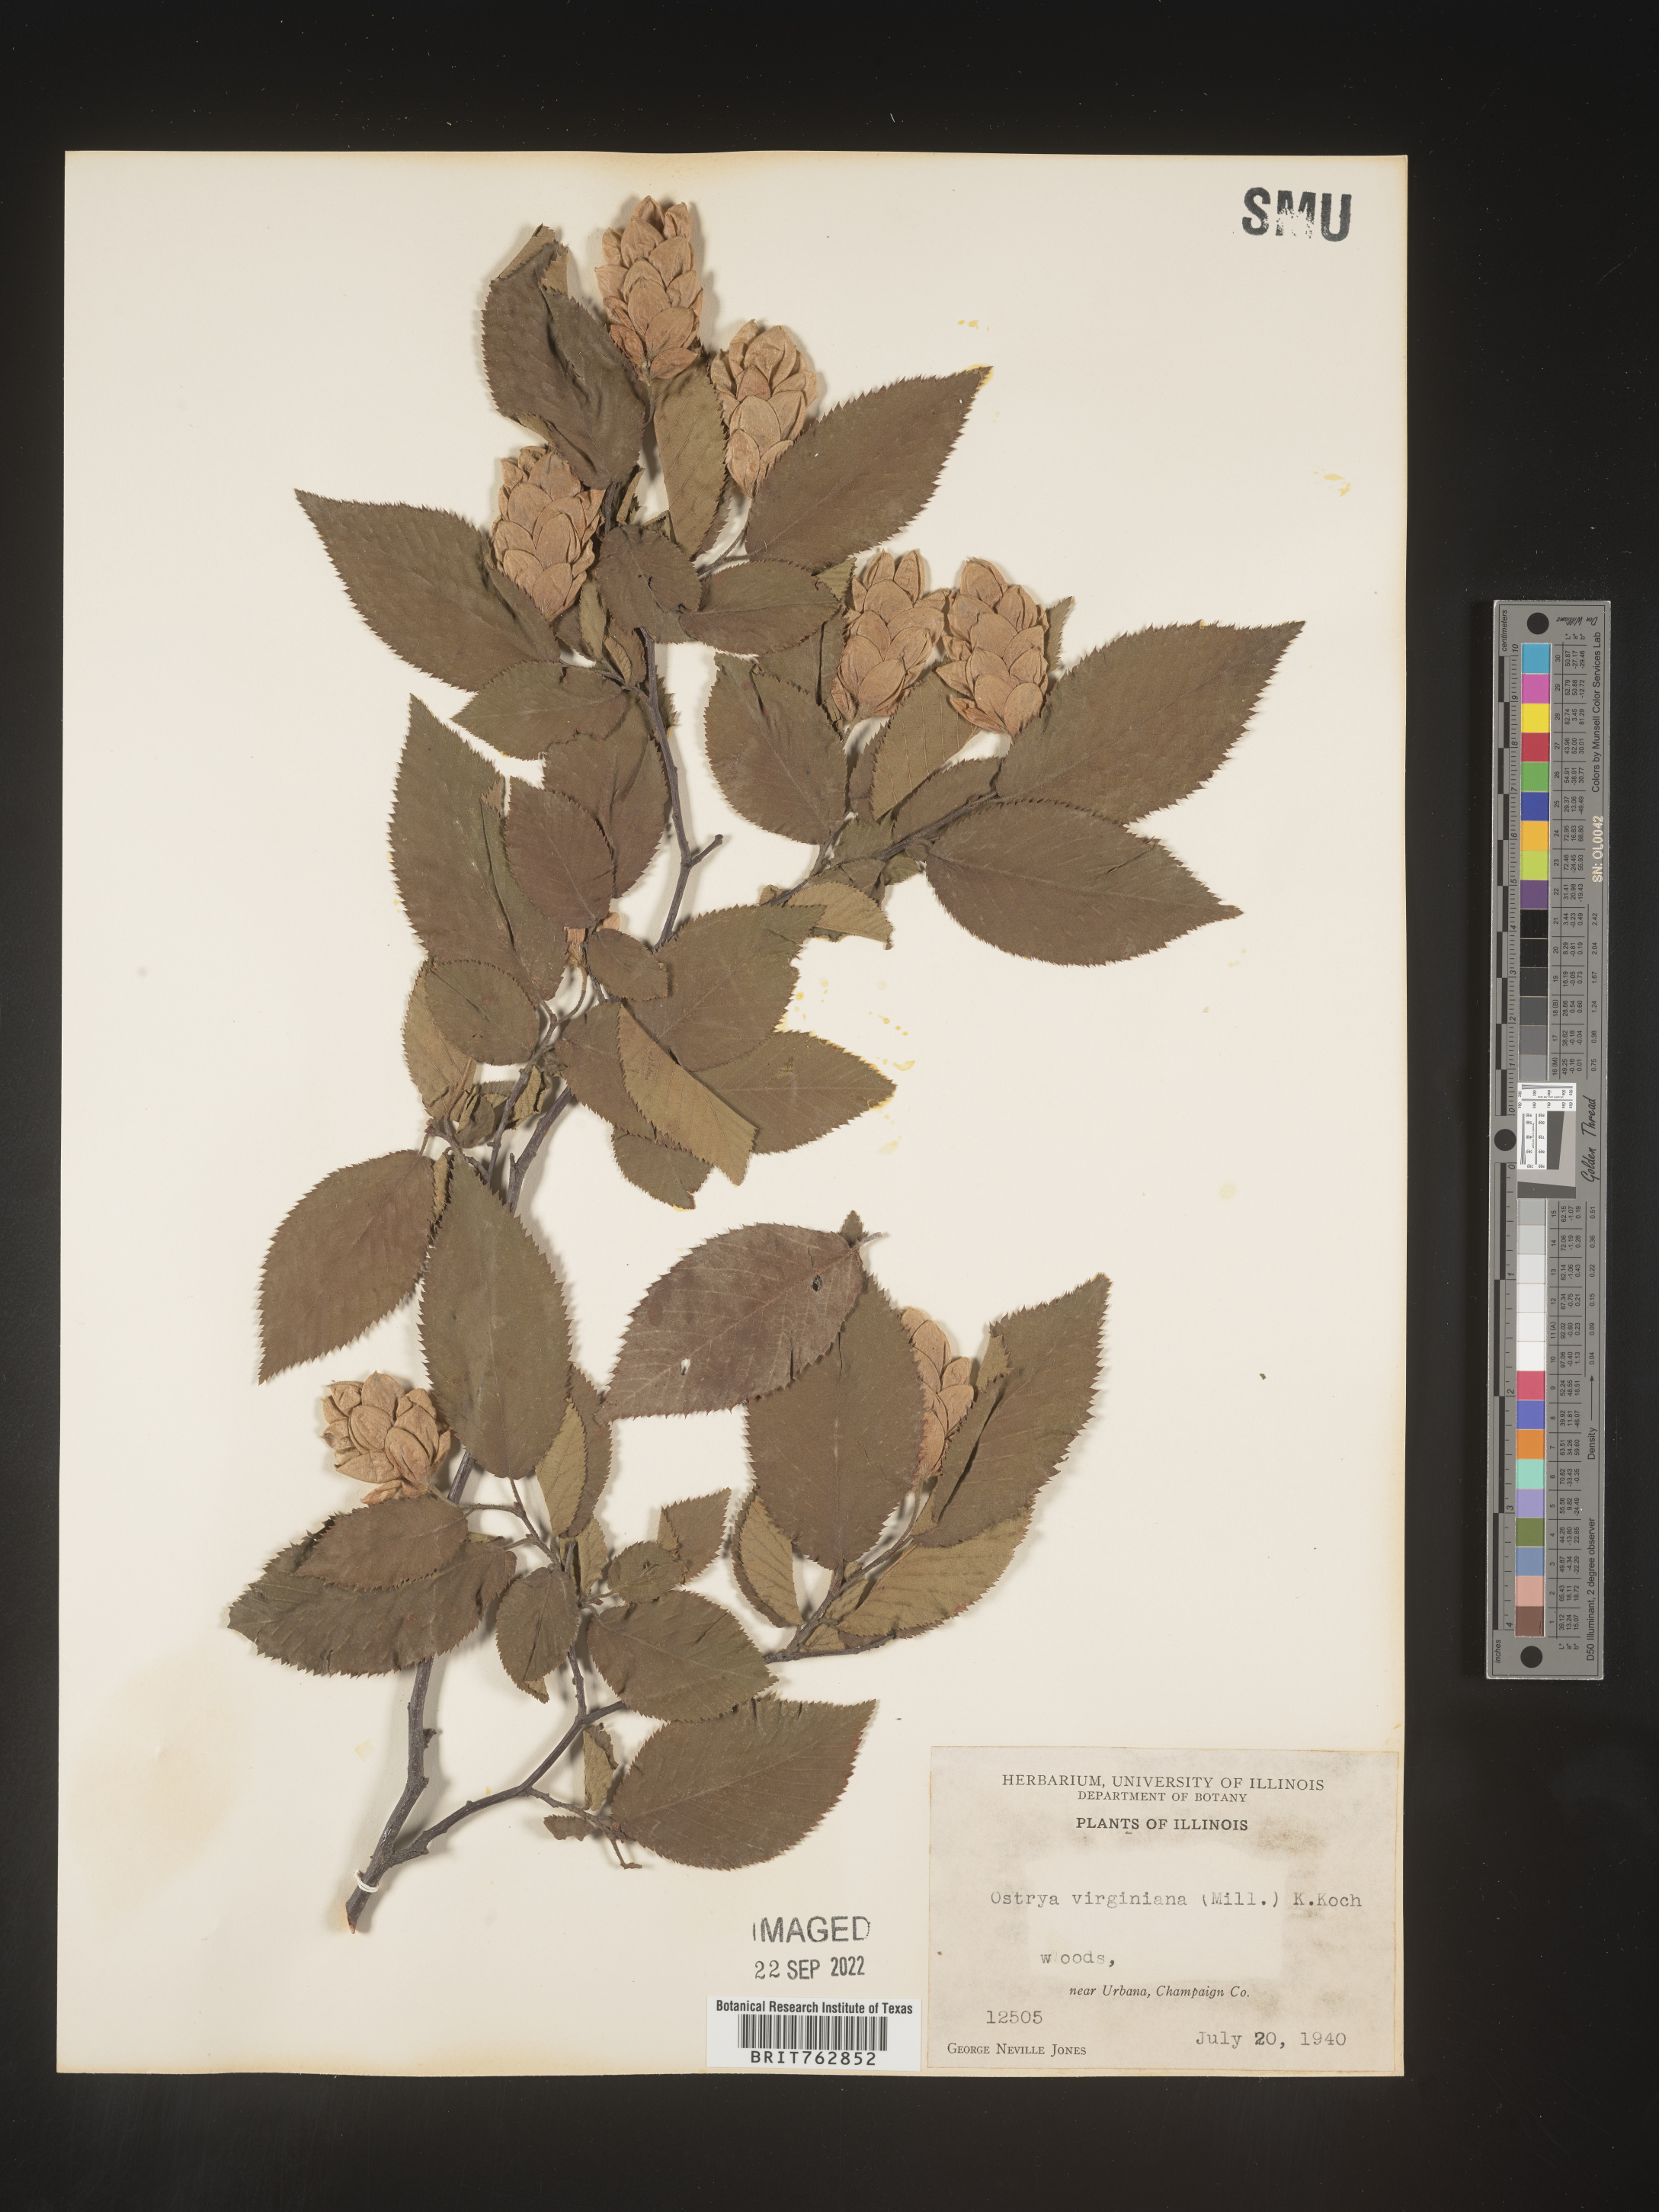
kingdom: Plantae
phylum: Tracheophyta
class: Magnoliopsida
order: Fagales
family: Betulaceae
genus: Ostrya
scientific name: Ostrya virginiana
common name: Ironwood
